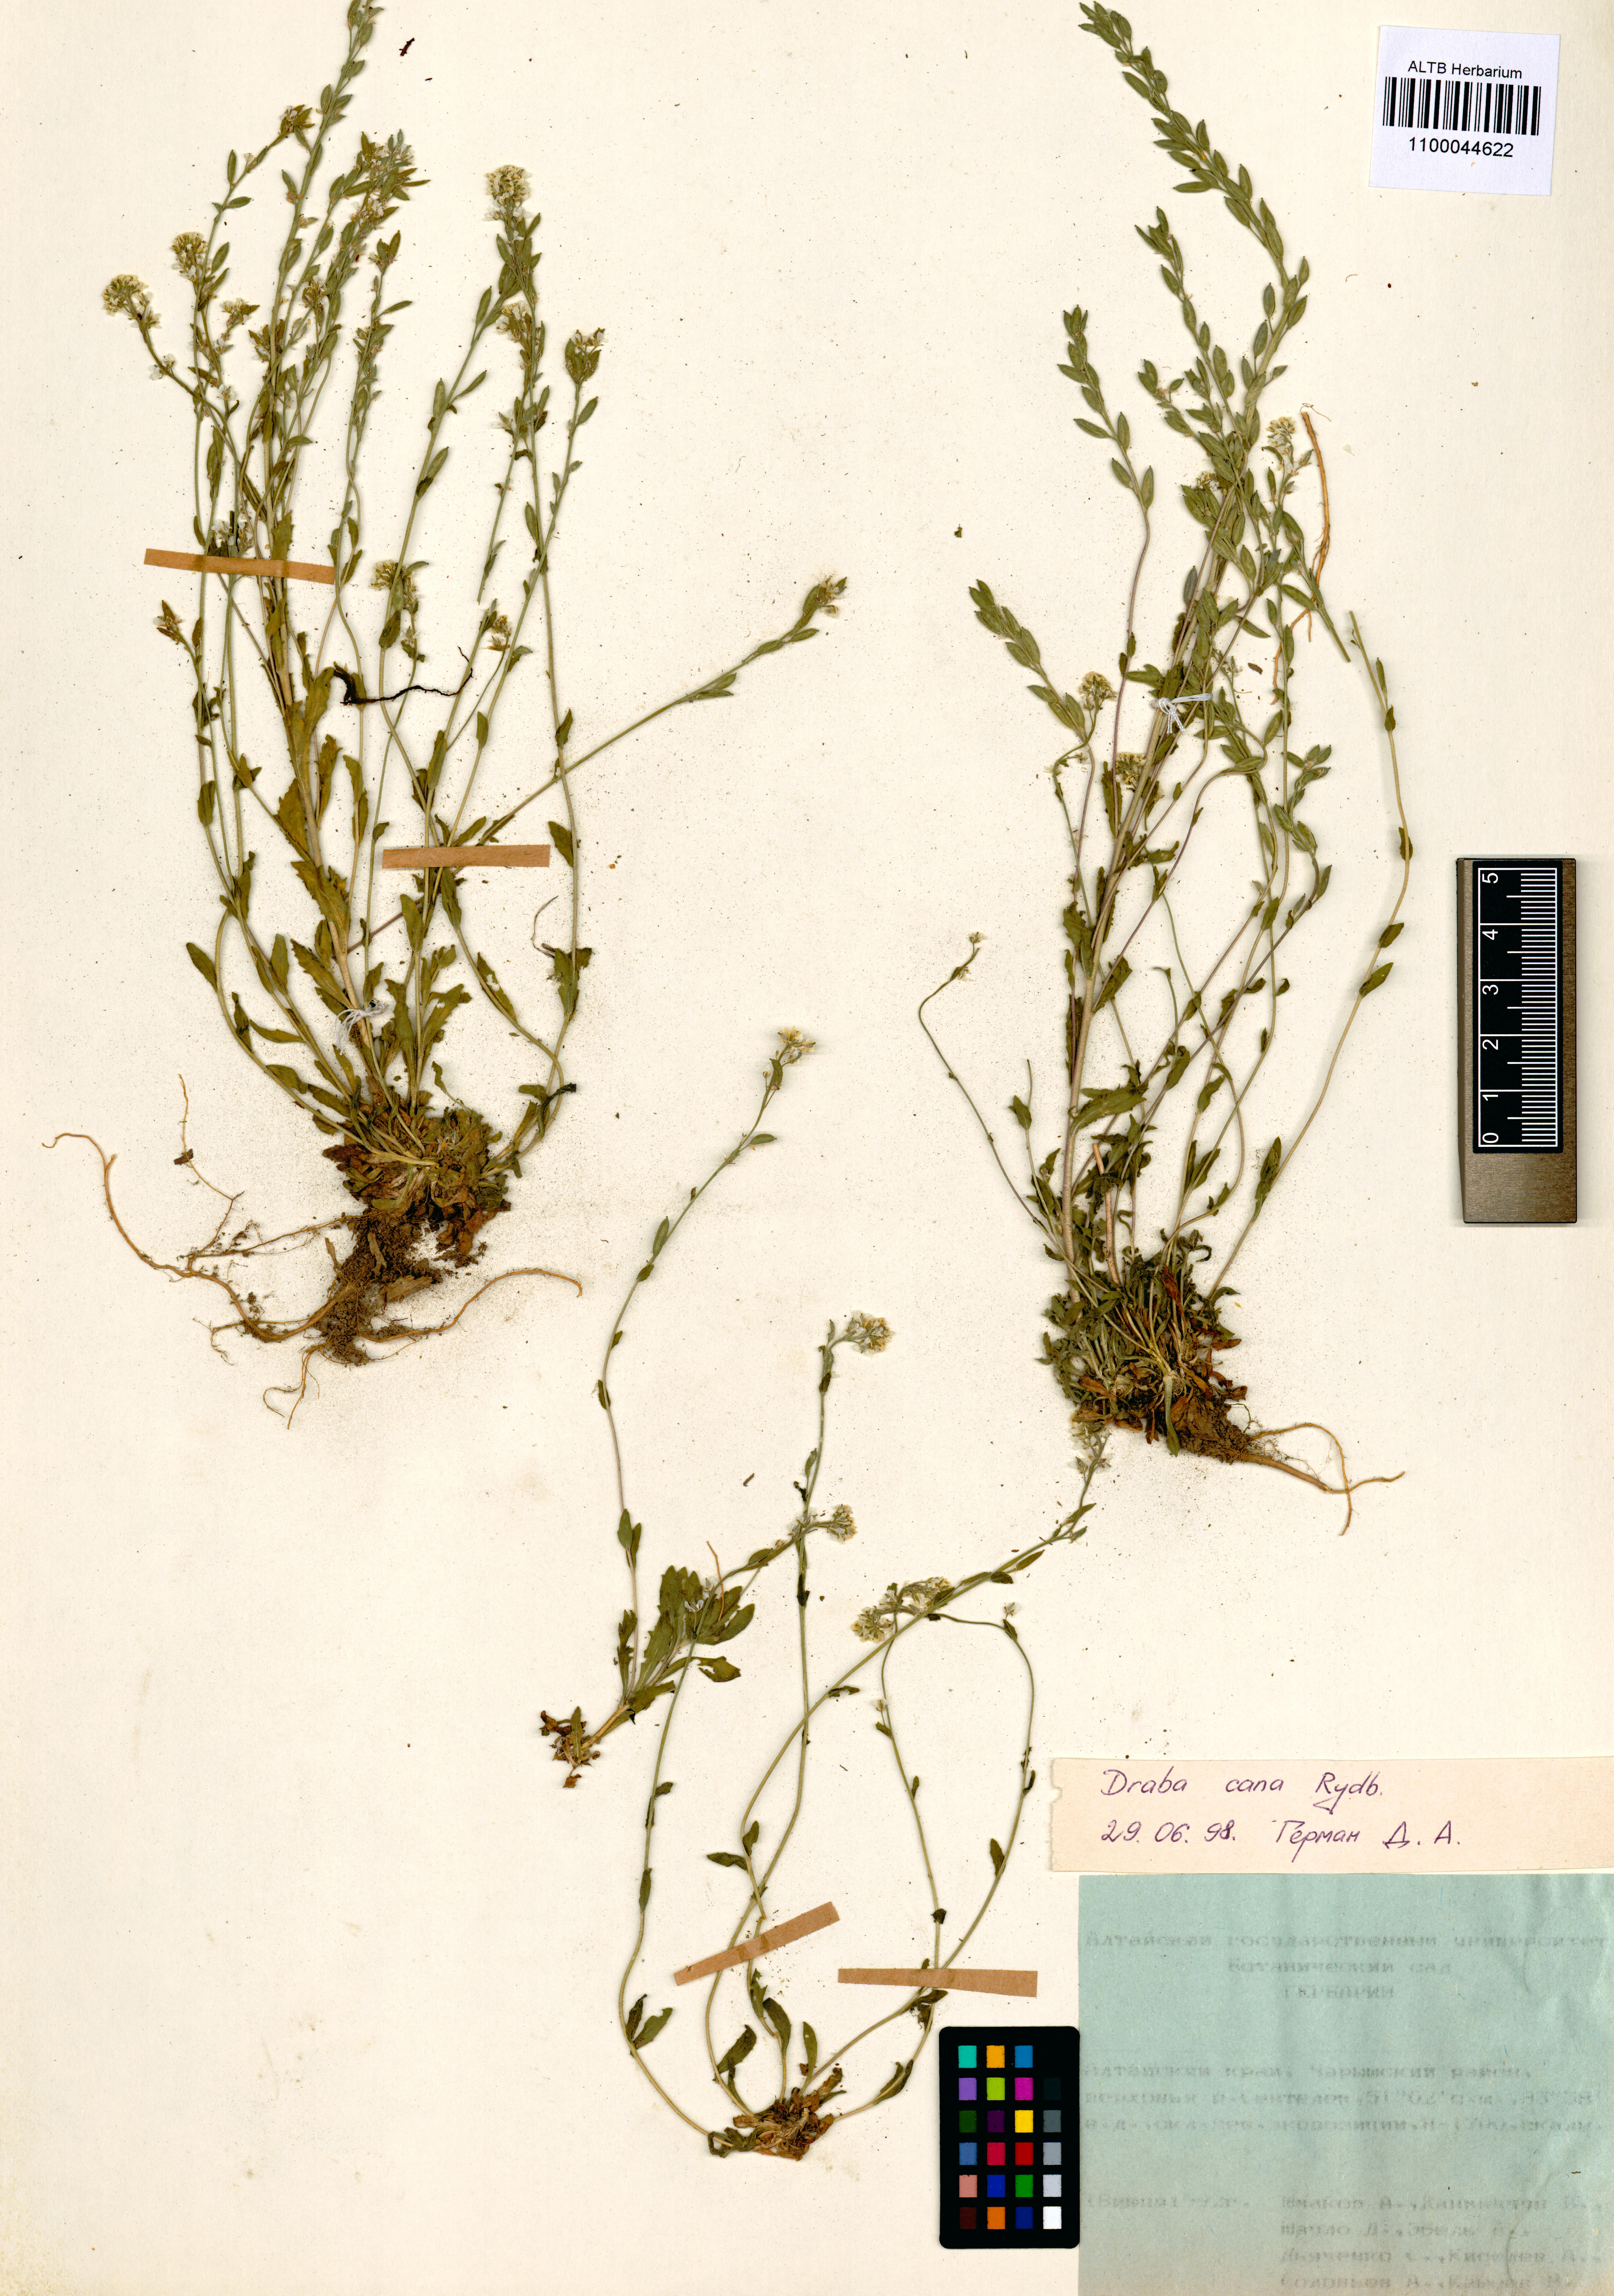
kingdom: Plantae
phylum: Tracheophyta
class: Magnoliopsida
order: Brassicales
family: Brassicaceae
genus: Draba
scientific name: Draba cana
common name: Hoary draba
